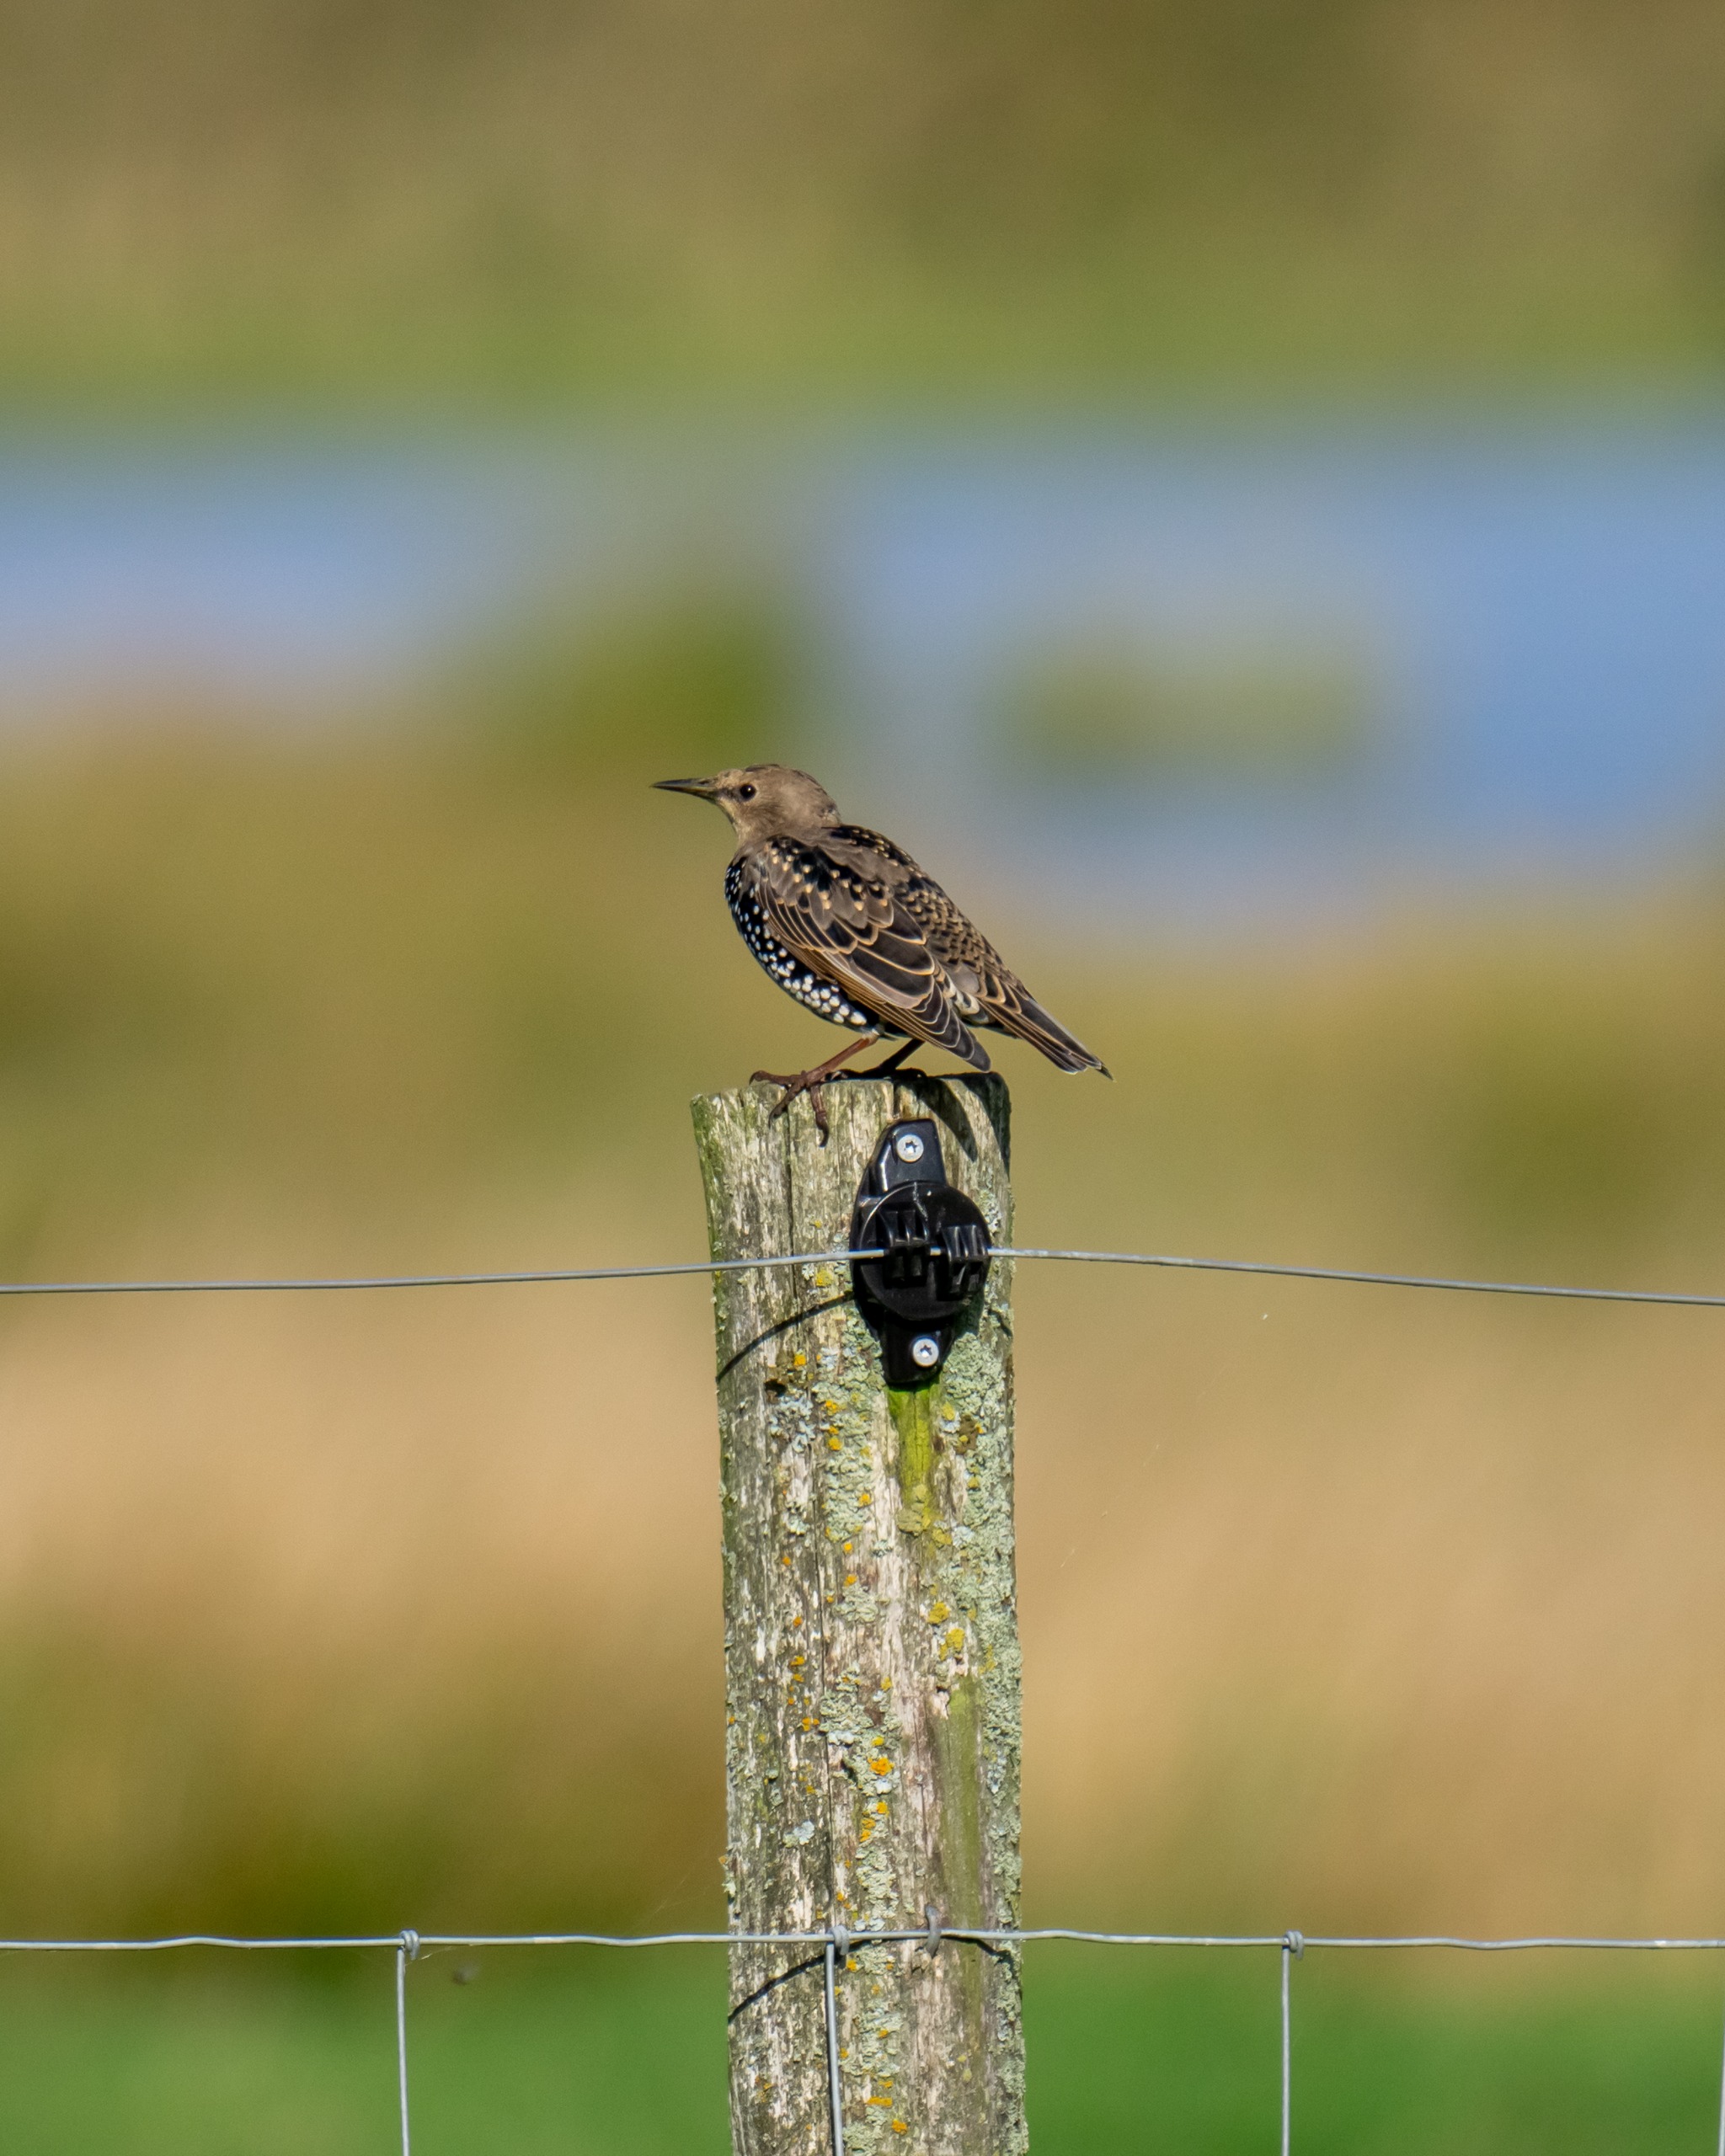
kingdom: Animalia
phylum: Chordata
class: Aves
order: Passeriformes
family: Sturnidae
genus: Sturnus
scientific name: Sturnus vulgaris
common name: Stær
